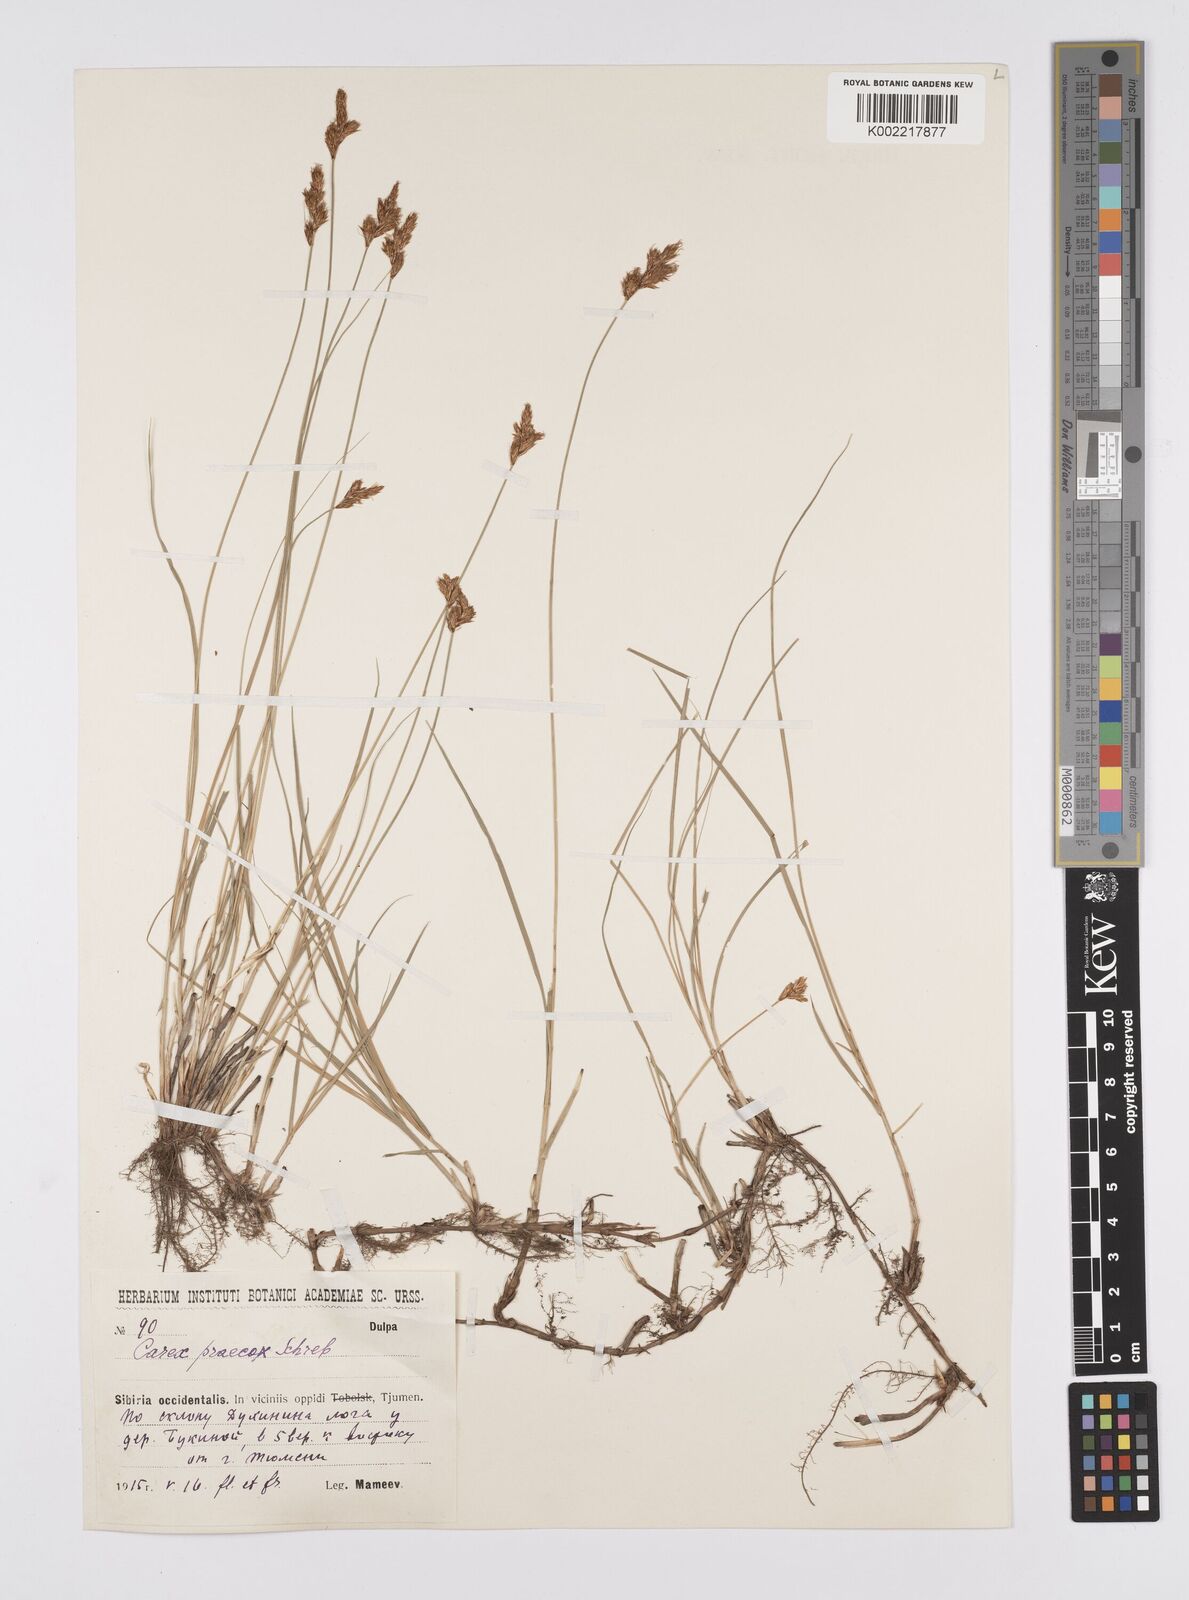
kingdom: Plantae
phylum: Tracheophyta
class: Liliopsida
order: Poales
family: Cyperaceae
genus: Carex
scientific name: Carex praecox
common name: Early sedge
